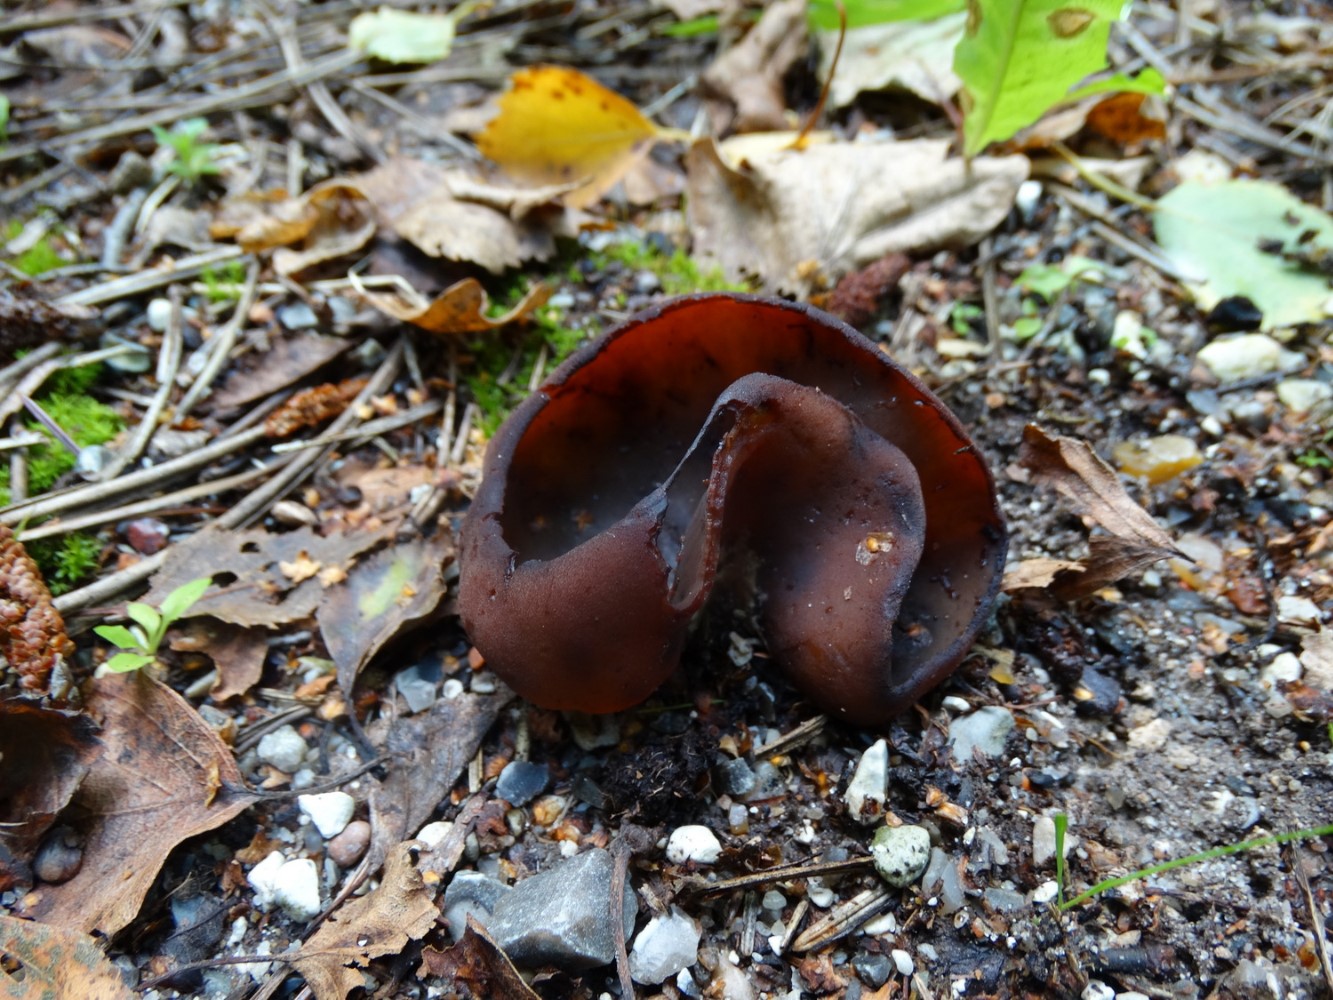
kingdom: Fungi
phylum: Ascomycota
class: Pezizomycetes
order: Pezizales
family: Pezizaceae
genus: Peziza
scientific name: Peziza
